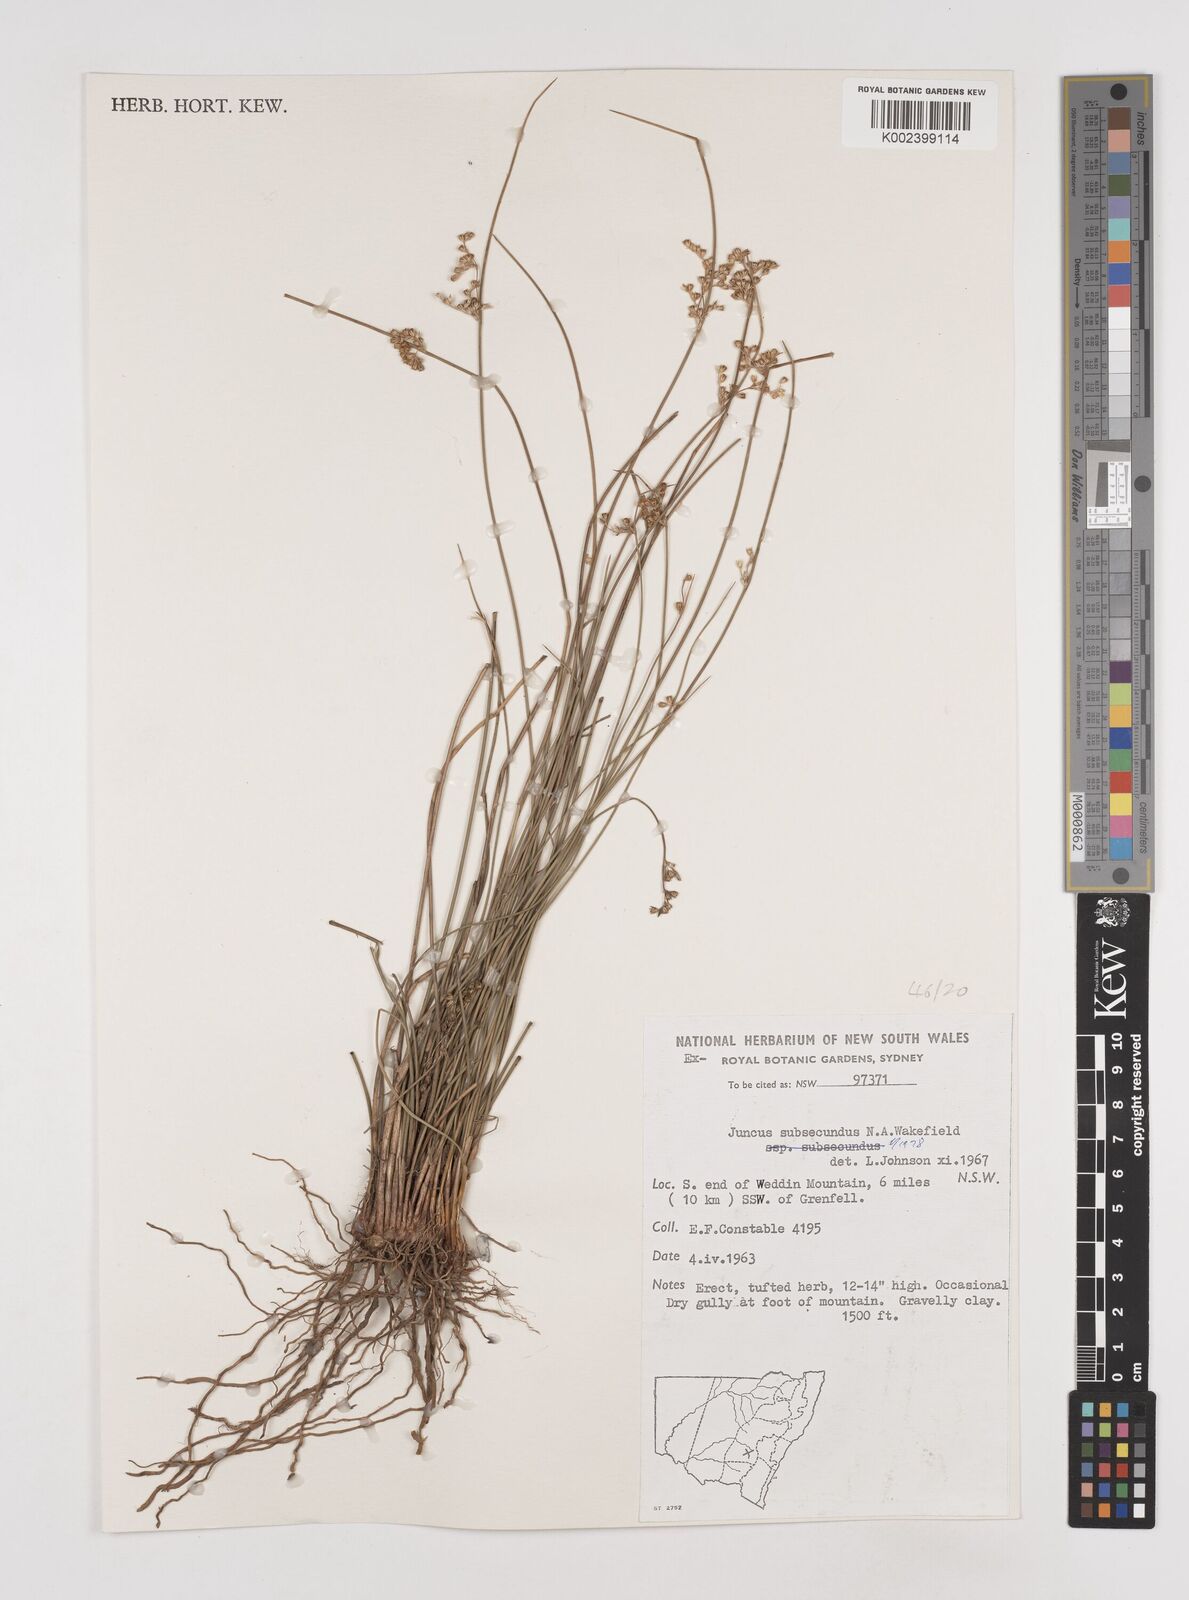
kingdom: Plantae
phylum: Tracheophyta
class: Liliopsida
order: Poales
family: Juncaceae
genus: Juncus
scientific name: Juncus subsecundus
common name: Fingered rush
